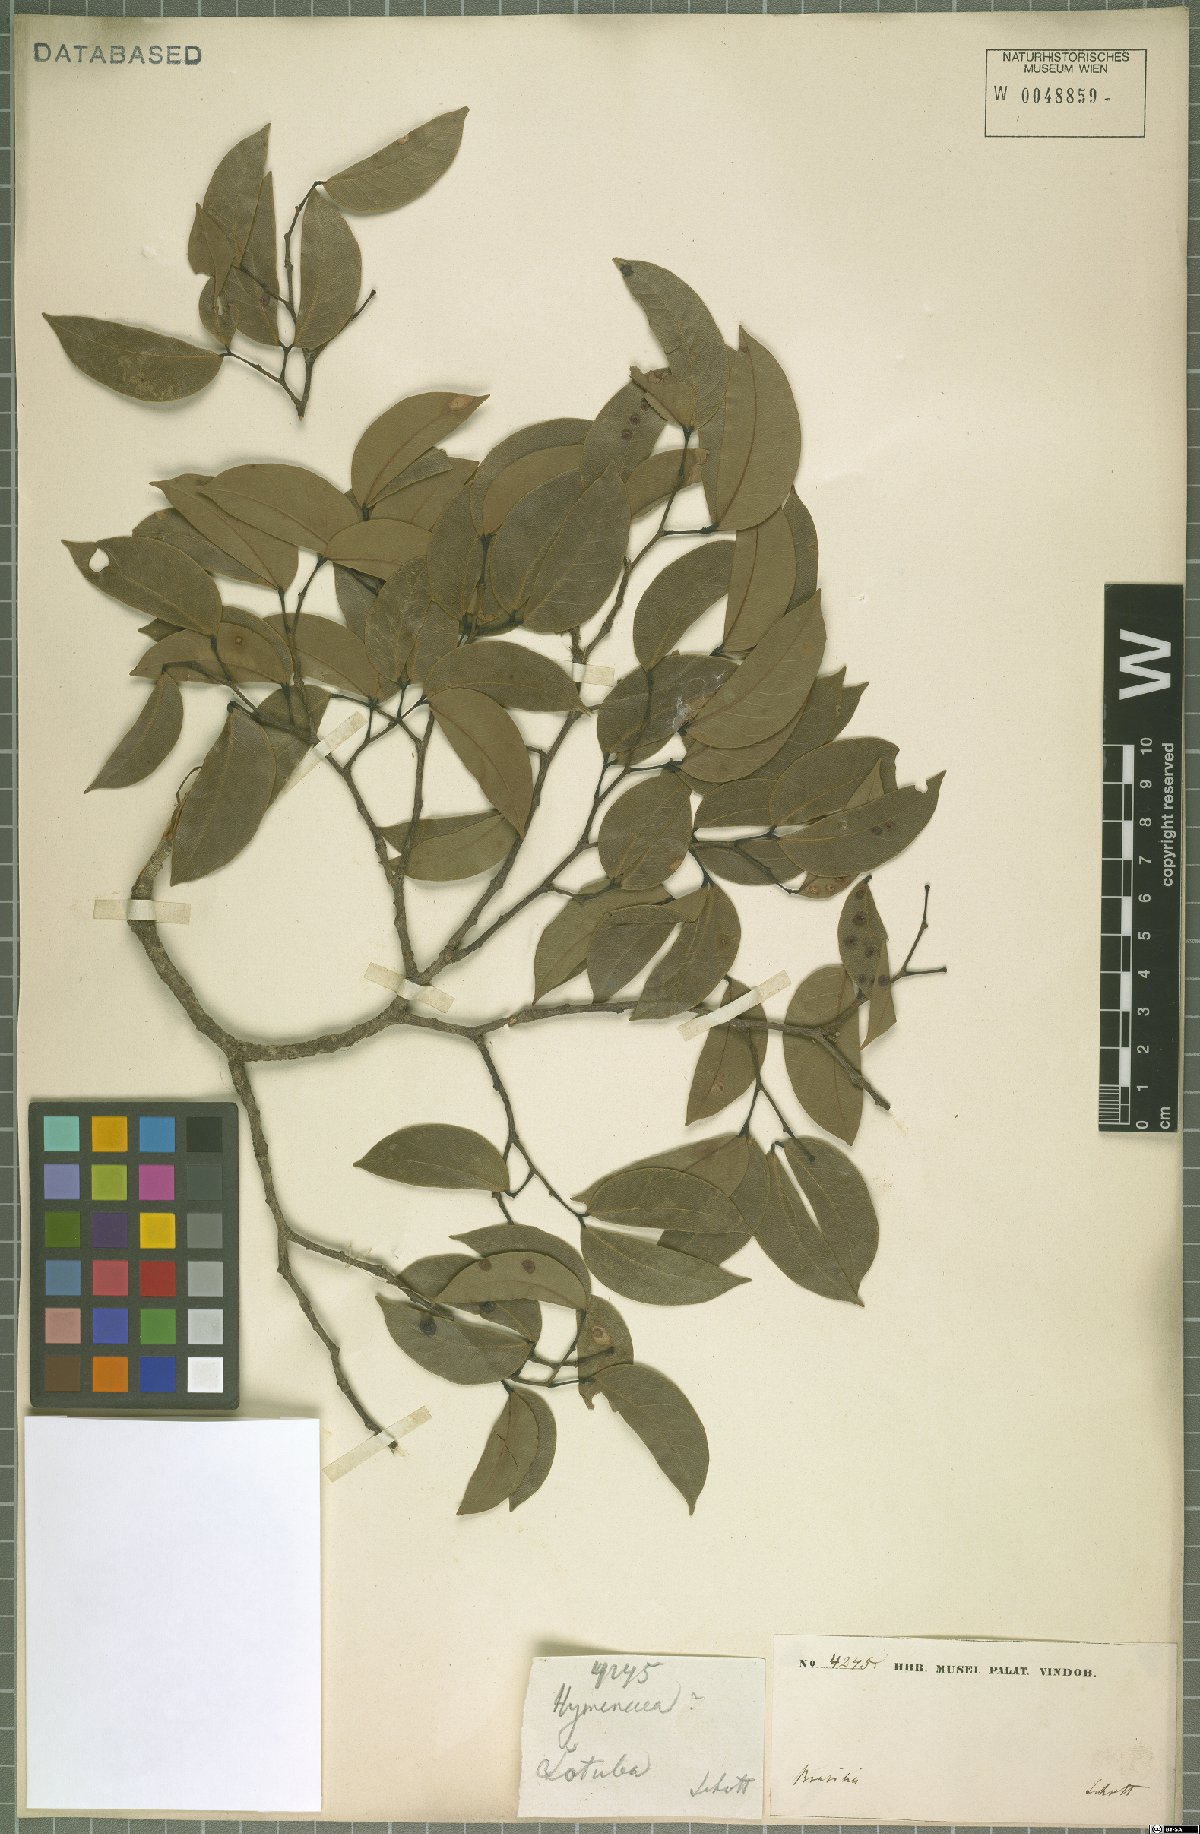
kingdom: Plantae
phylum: Tracheophyta
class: Magnoliopsida
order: Fabales
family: Fabaceae
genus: Hymenaea
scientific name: Hymenaea courbaril
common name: Brazilian copal
